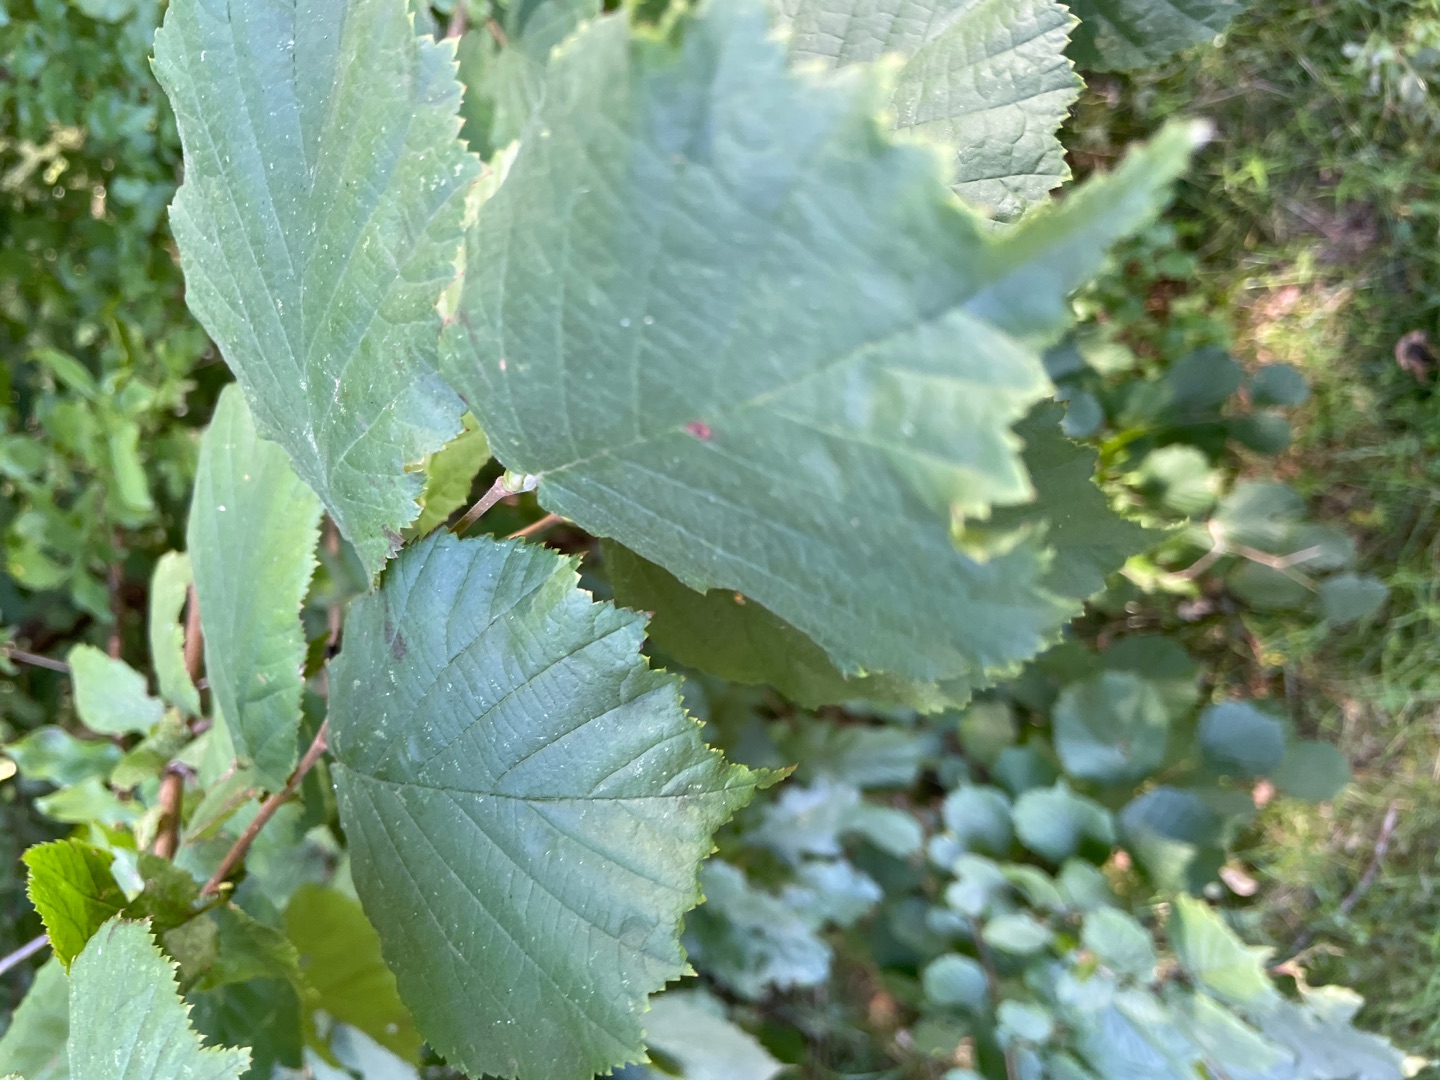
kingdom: Plantae
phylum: Tracheophyta
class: Magnoliopsida
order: Fagales
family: Betulaceae
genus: Corylus
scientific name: Corylus avellana
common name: Hassel
